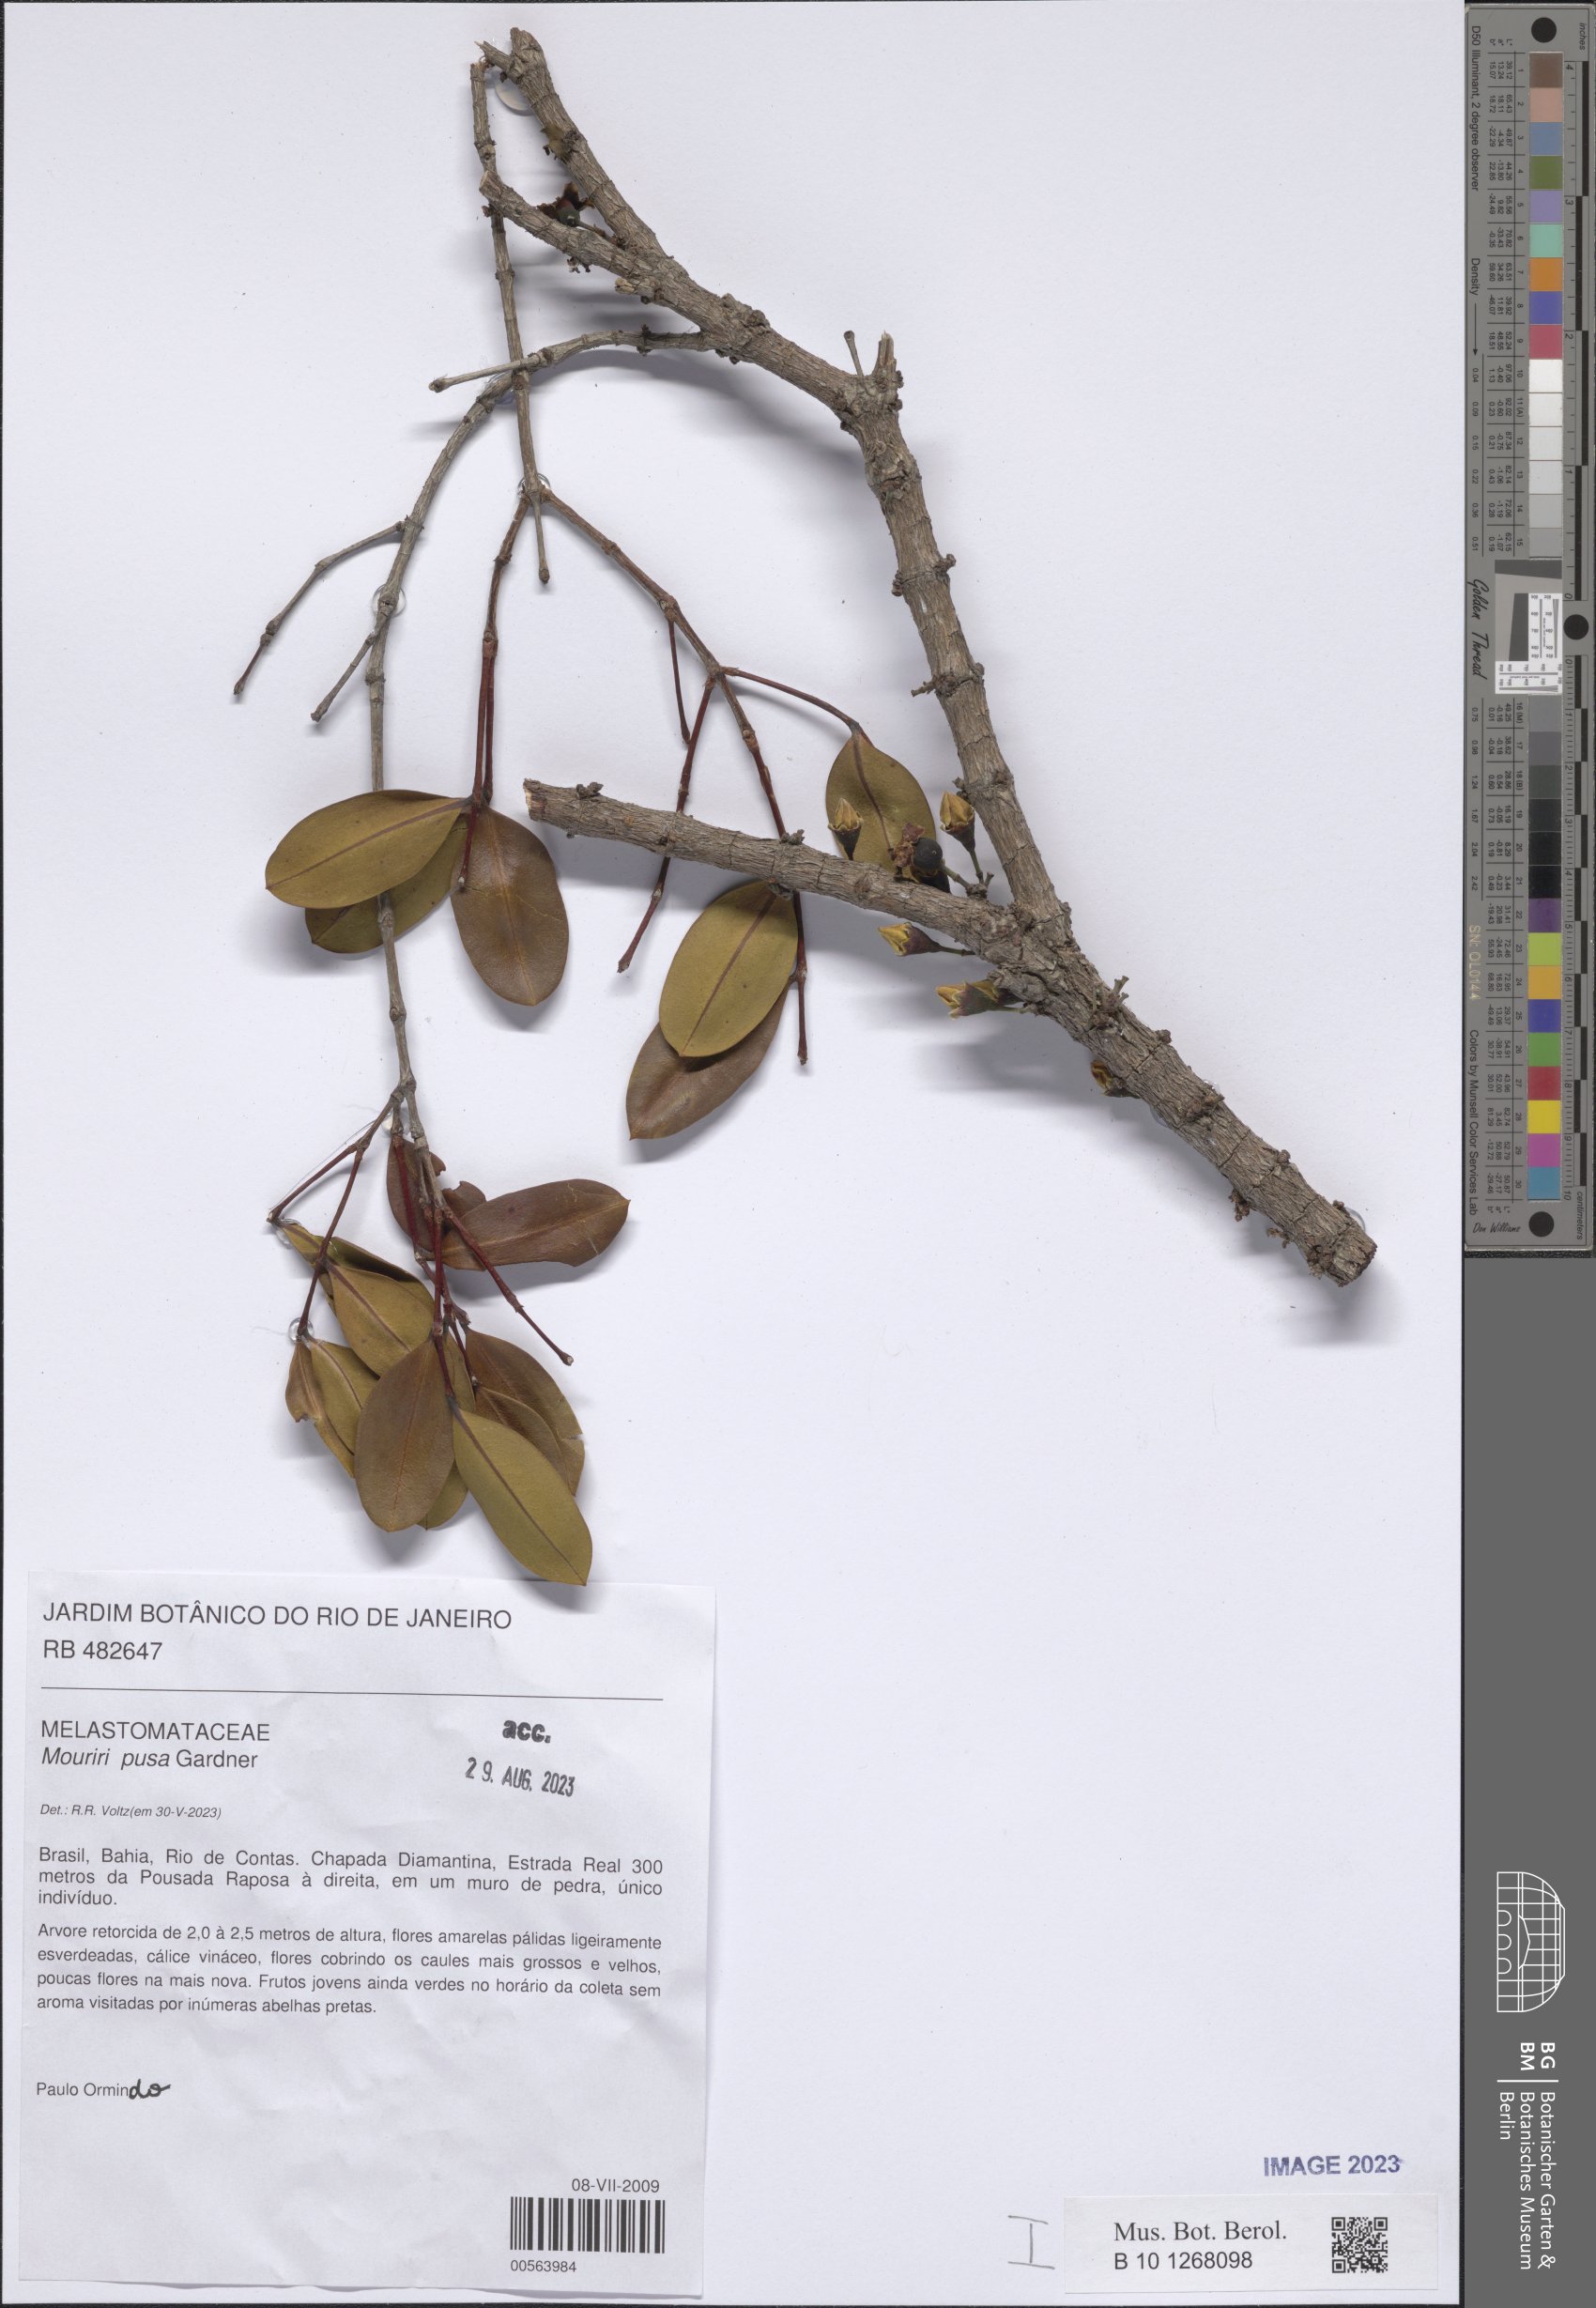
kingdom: Plantae
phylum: Tracheophyta
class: Magnoliopsida
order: Myrtales
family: Melastomataceae
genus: Mouriri
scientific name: Mouriri pusa
